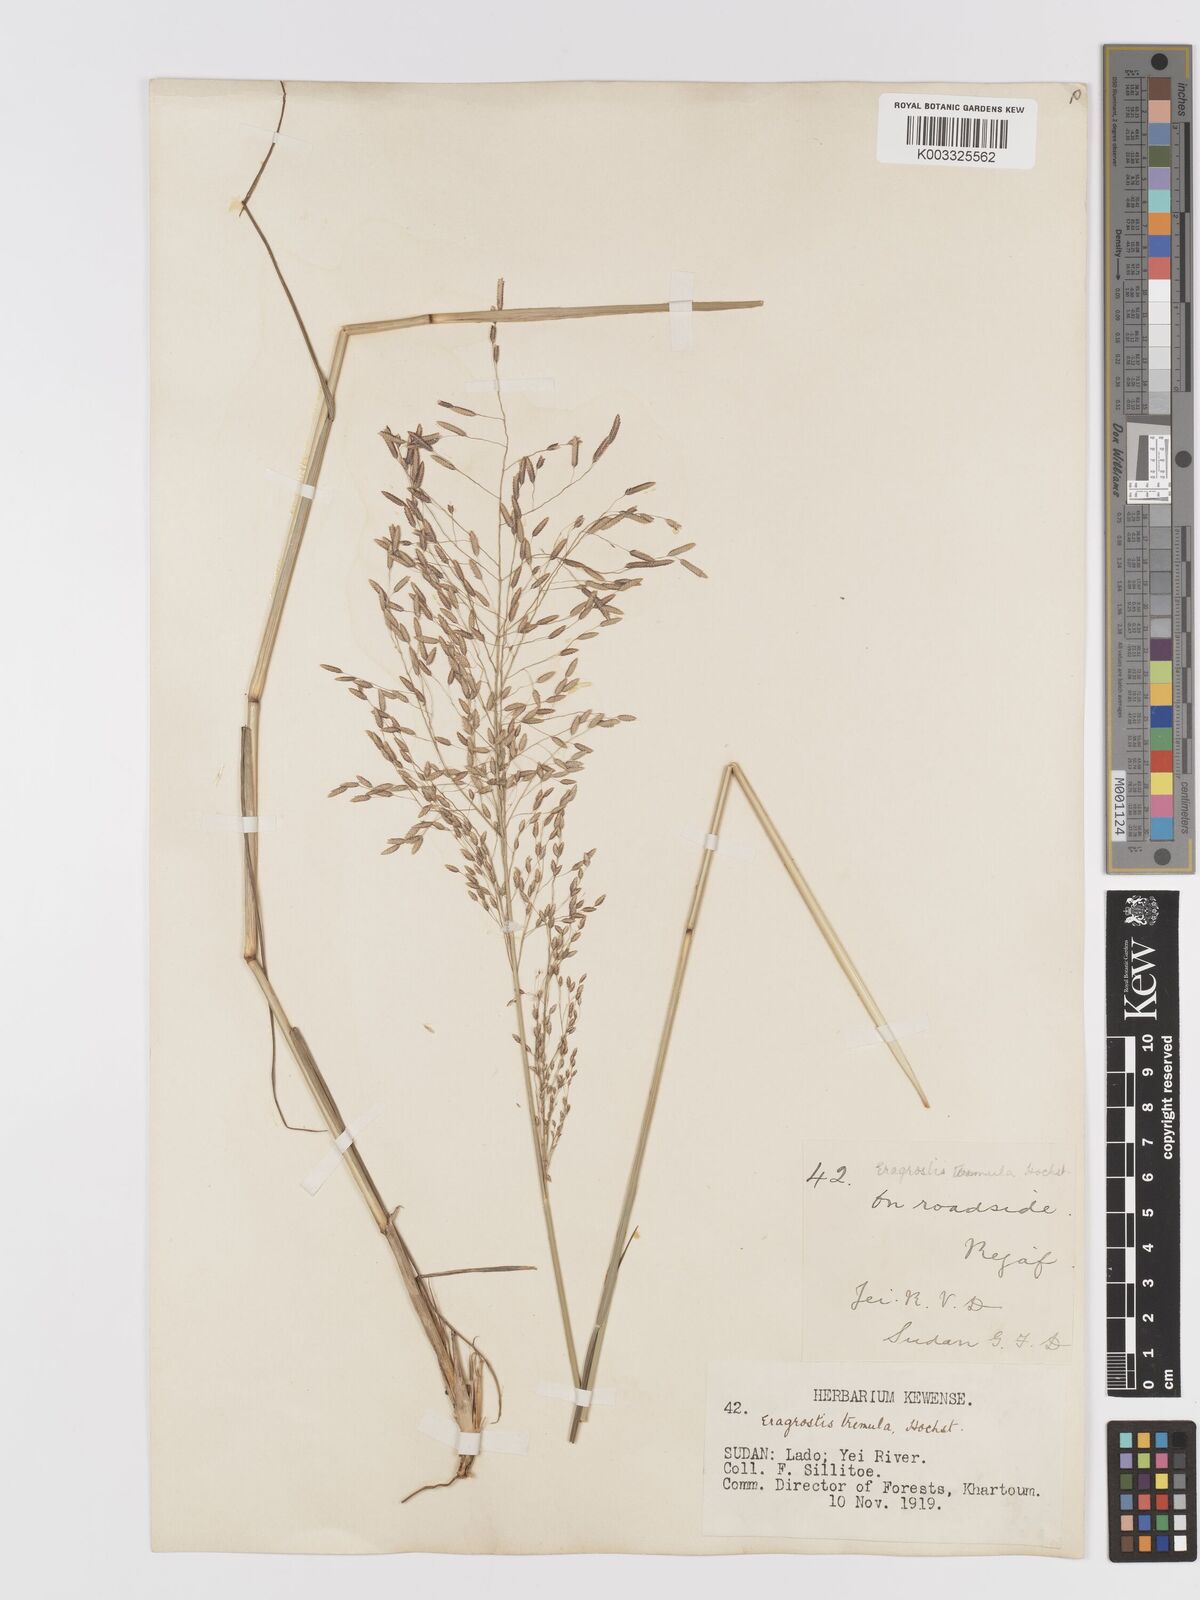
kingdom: Plantae
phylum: Tracheophyta
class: Liliopsida
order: Poales
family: Poaceae
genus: Eragrostis
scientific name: Eragrostis tremula
